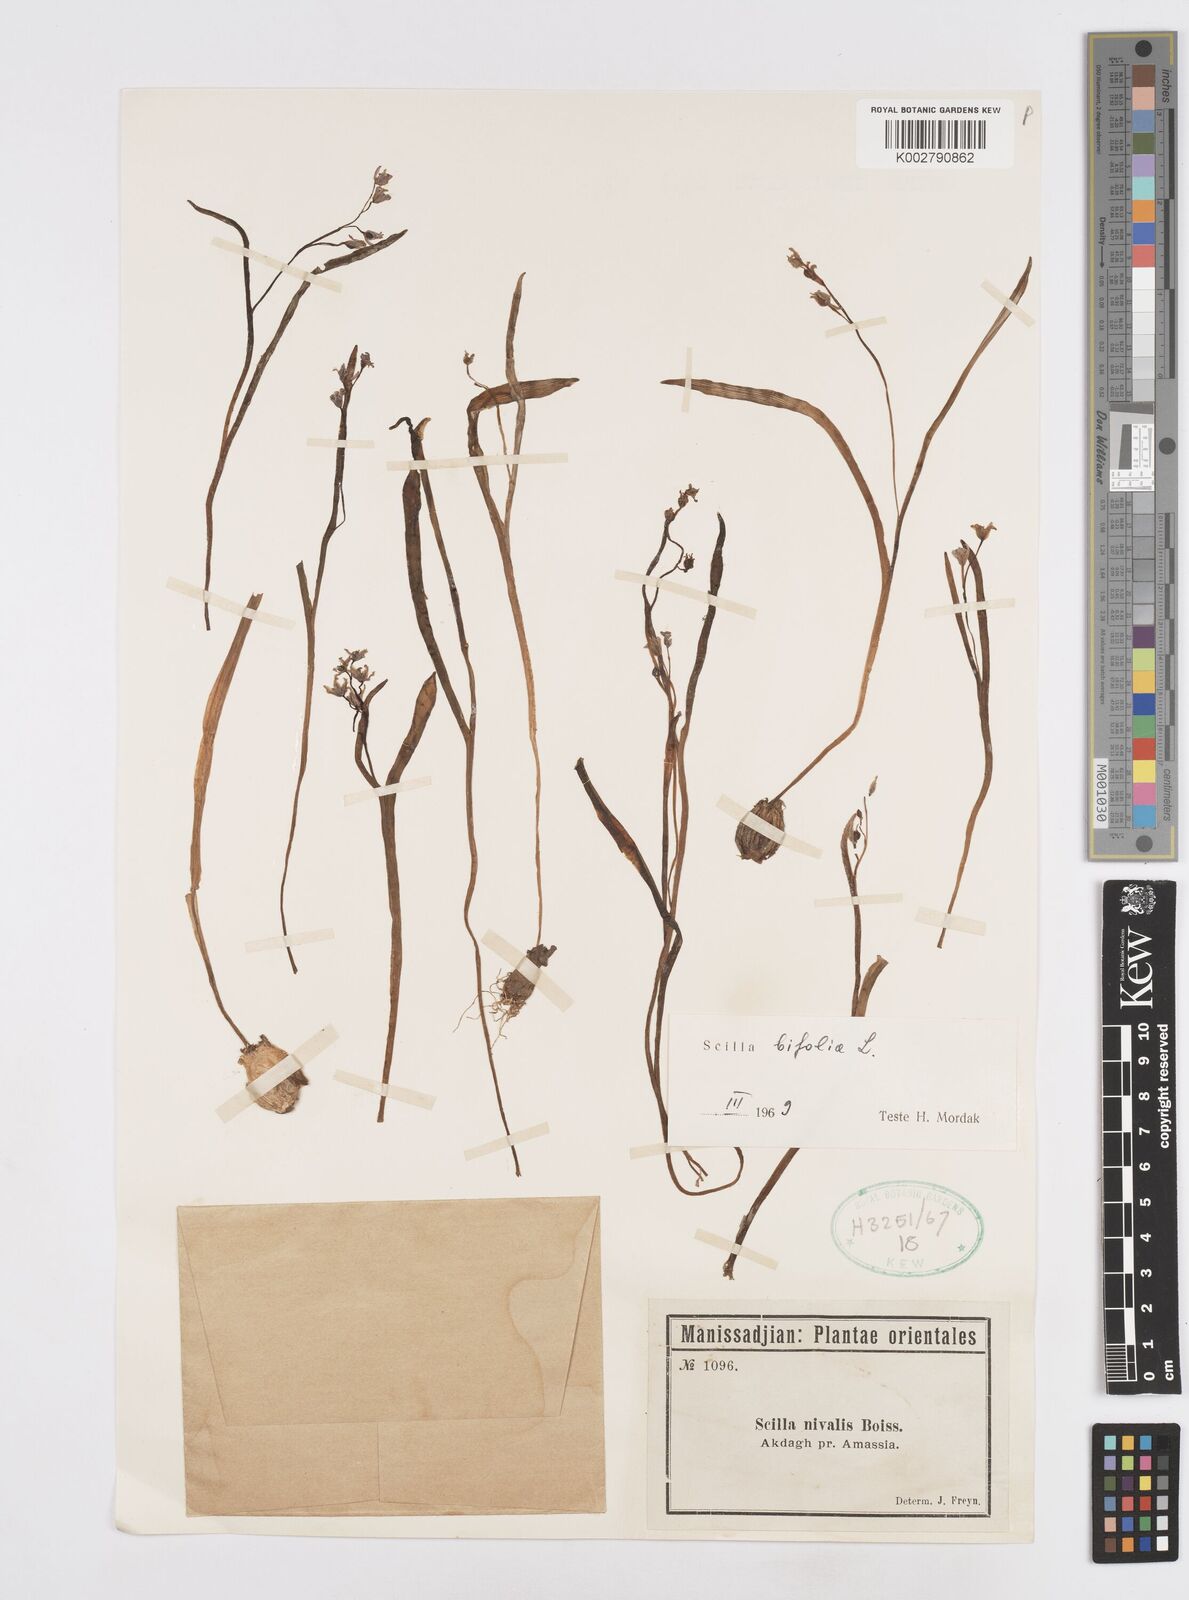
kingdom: Plantae
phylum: Tracheophyta
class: Liliopsida
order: Asparagales
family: Asparagaceae
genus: Scilla
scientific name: Scilla bifolia
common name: Alpine squill
